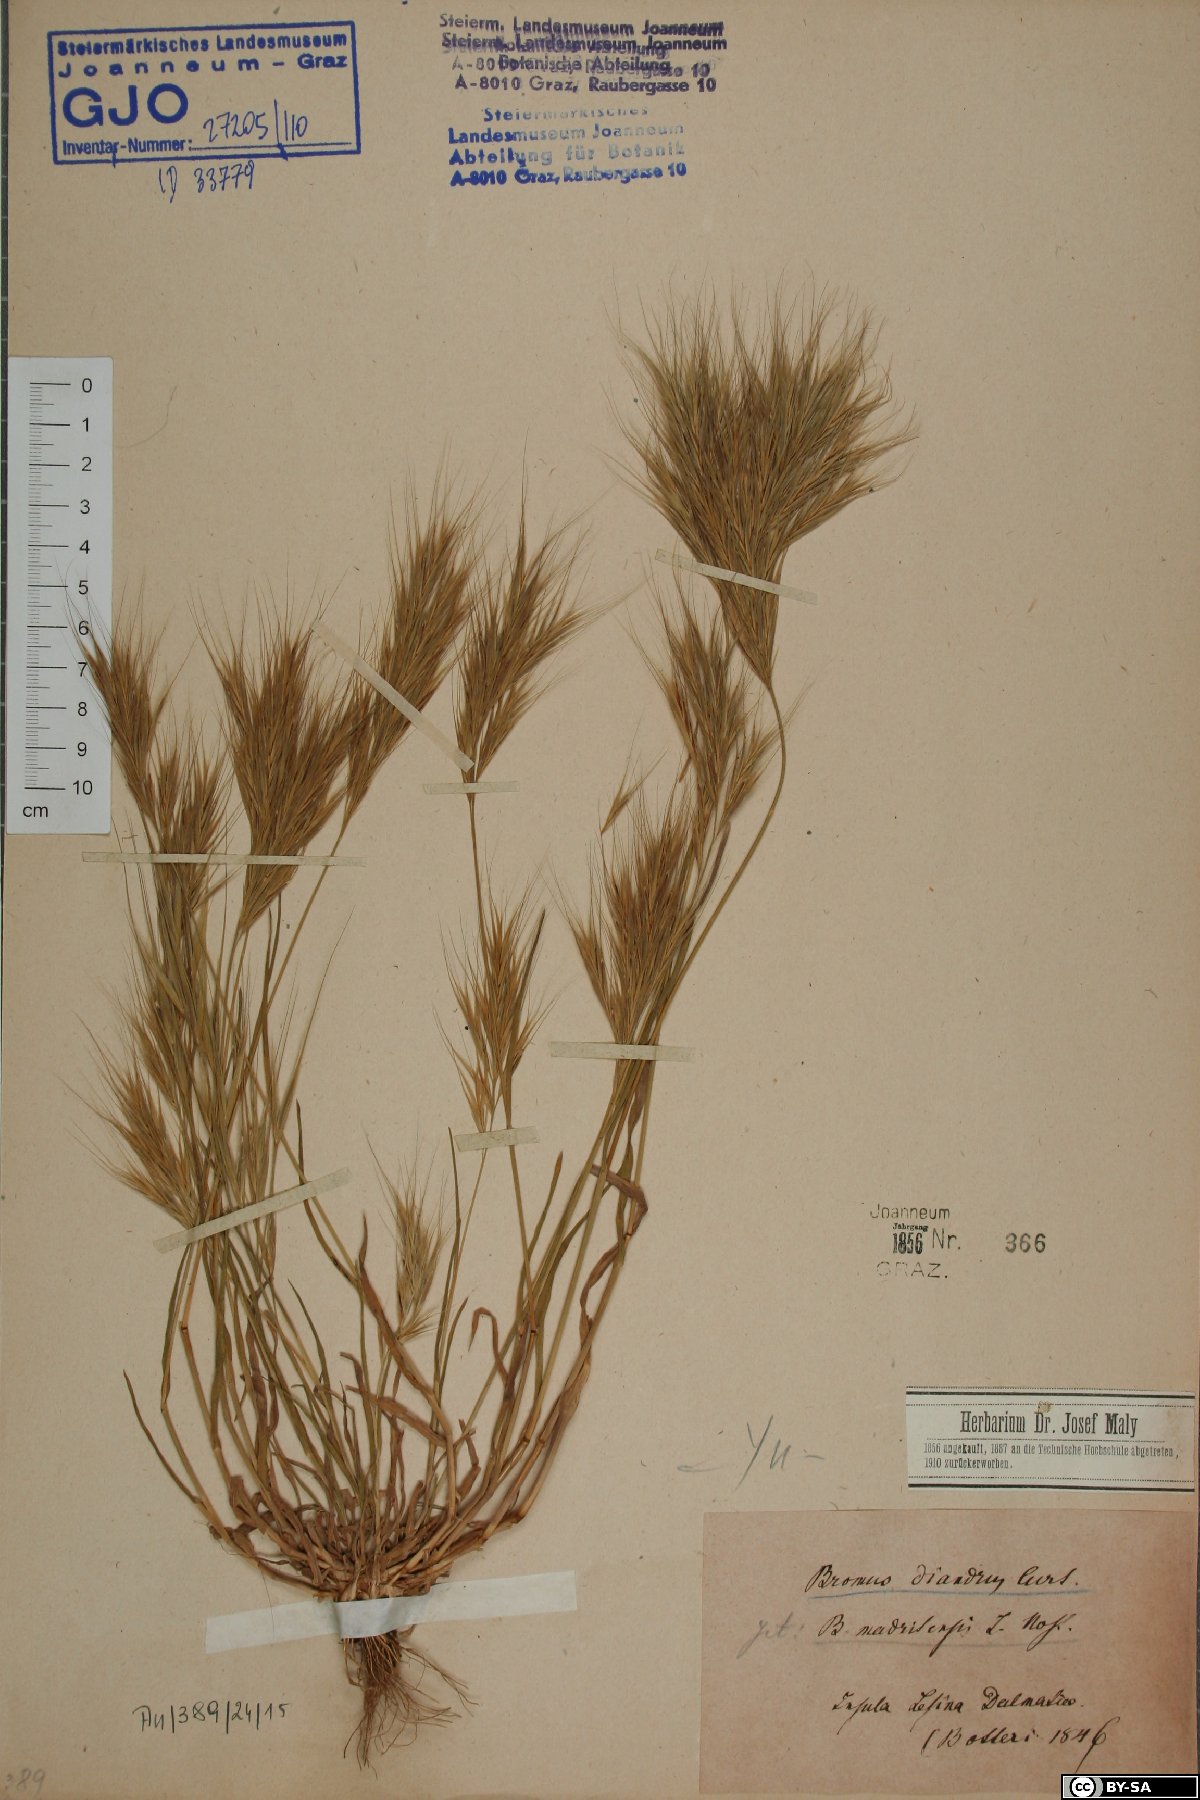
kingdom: Plantae
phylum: Tracheophyta
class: Liliopsida
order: Poales
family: Poaceae
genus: Bromus
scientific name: Bromus madritensis
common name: Compact brome
